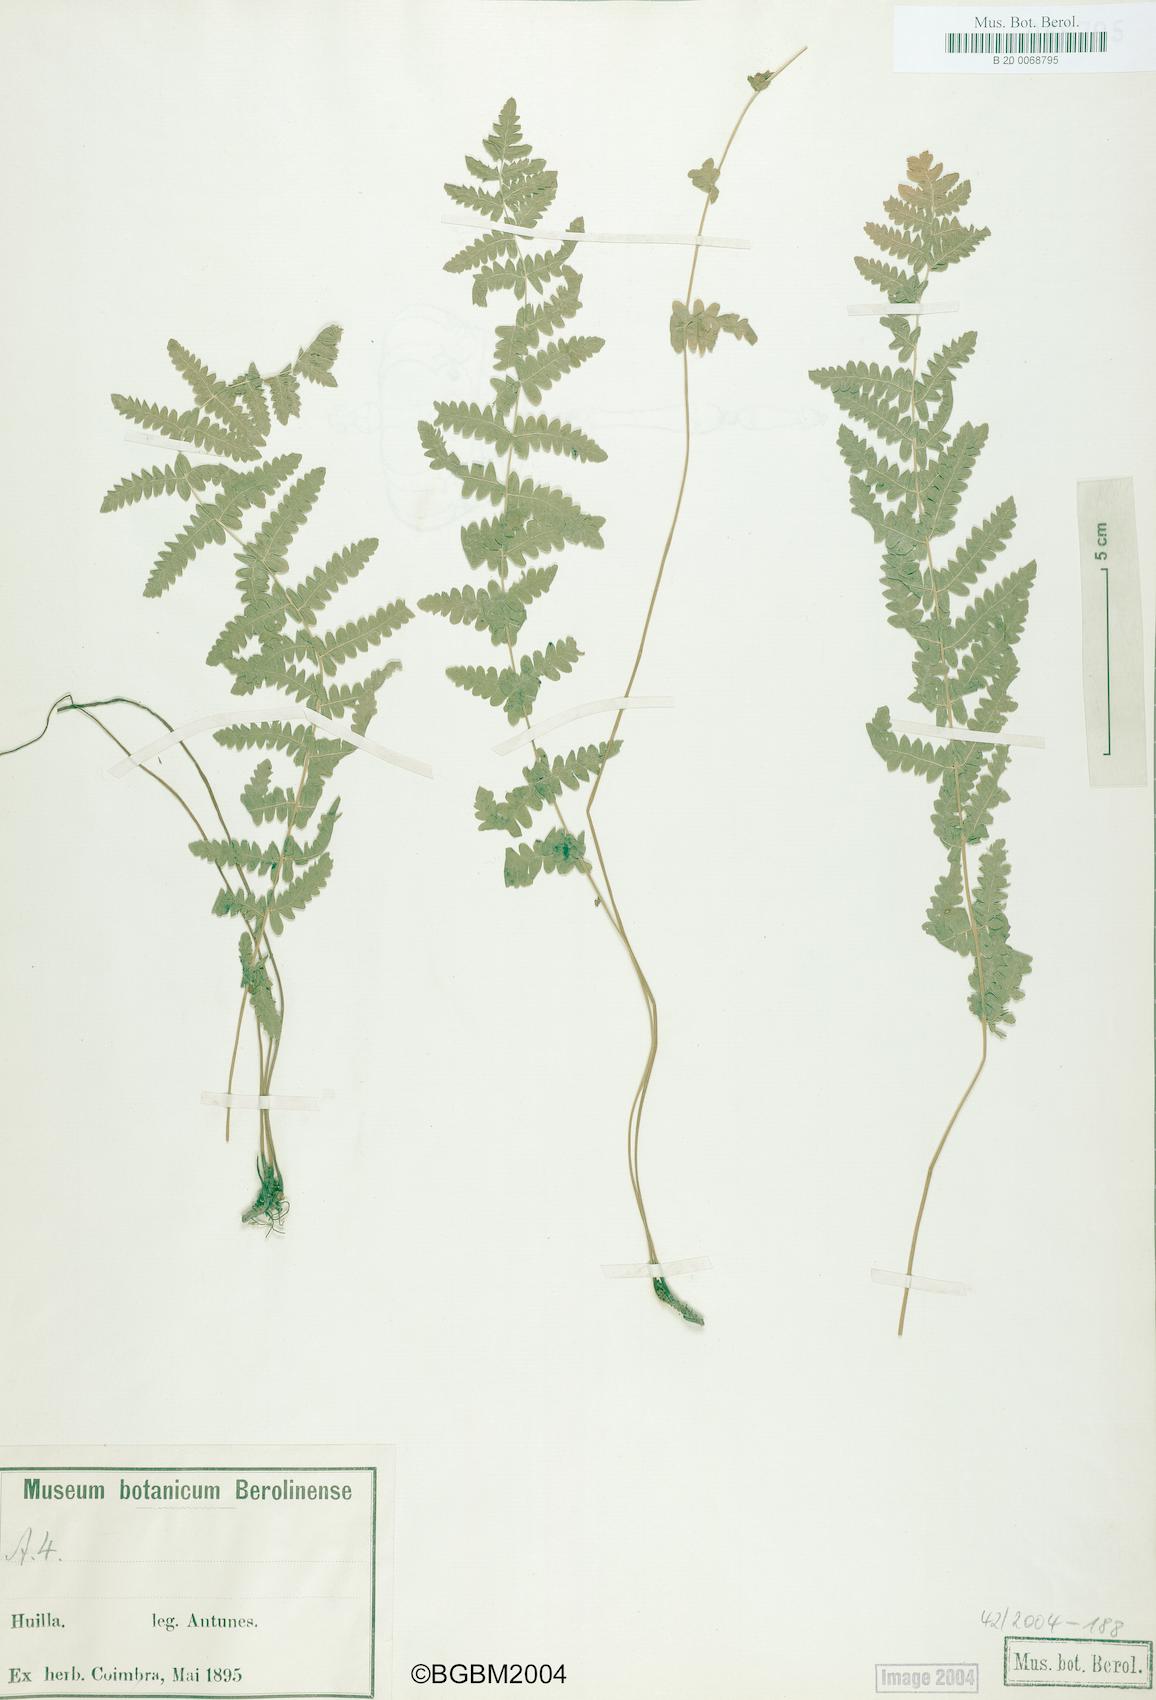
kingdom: Plantae
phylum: Tracheophyta
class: Polypodiopsida
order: Polypodiales
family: Thelypteridaceae
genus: Thelypteris
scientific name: Thelypteris palustris
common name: Marsh fern
